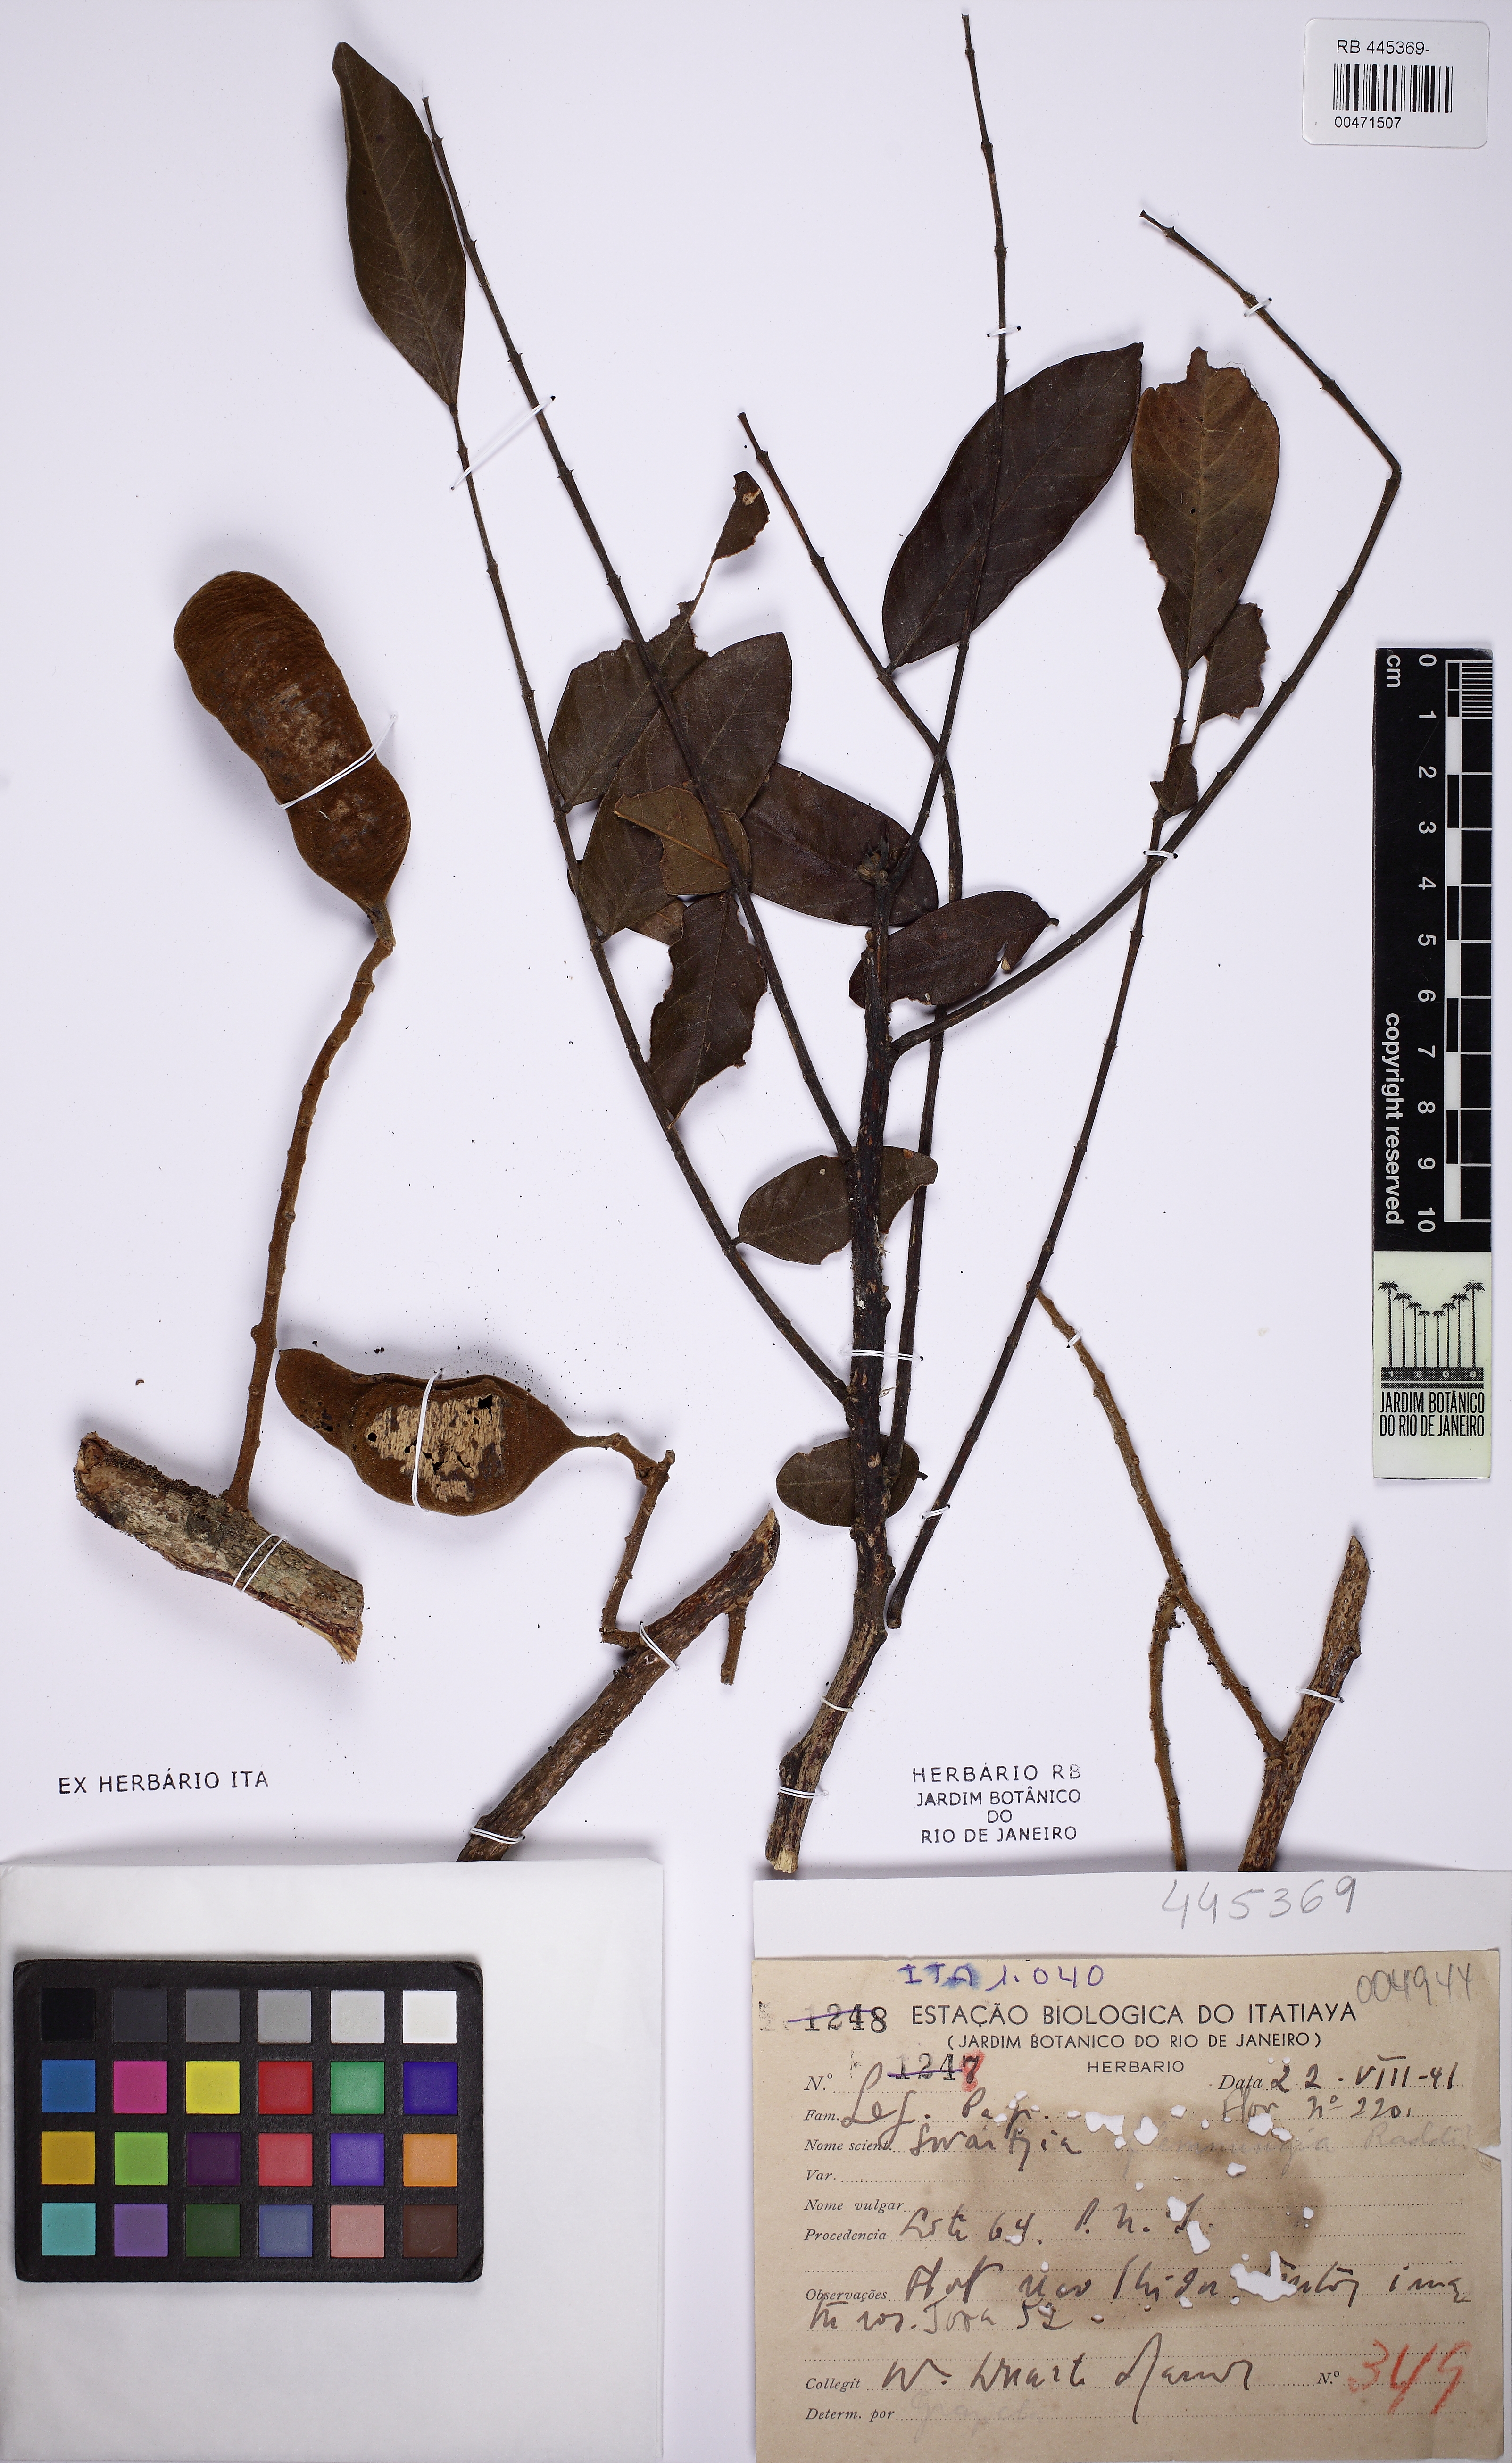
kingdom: Plantae
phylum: Tracheophyta
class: Magnoliopsida
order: Fabales
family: Fabaceae
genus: Swartzia
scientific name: Swartzia flaemingii
